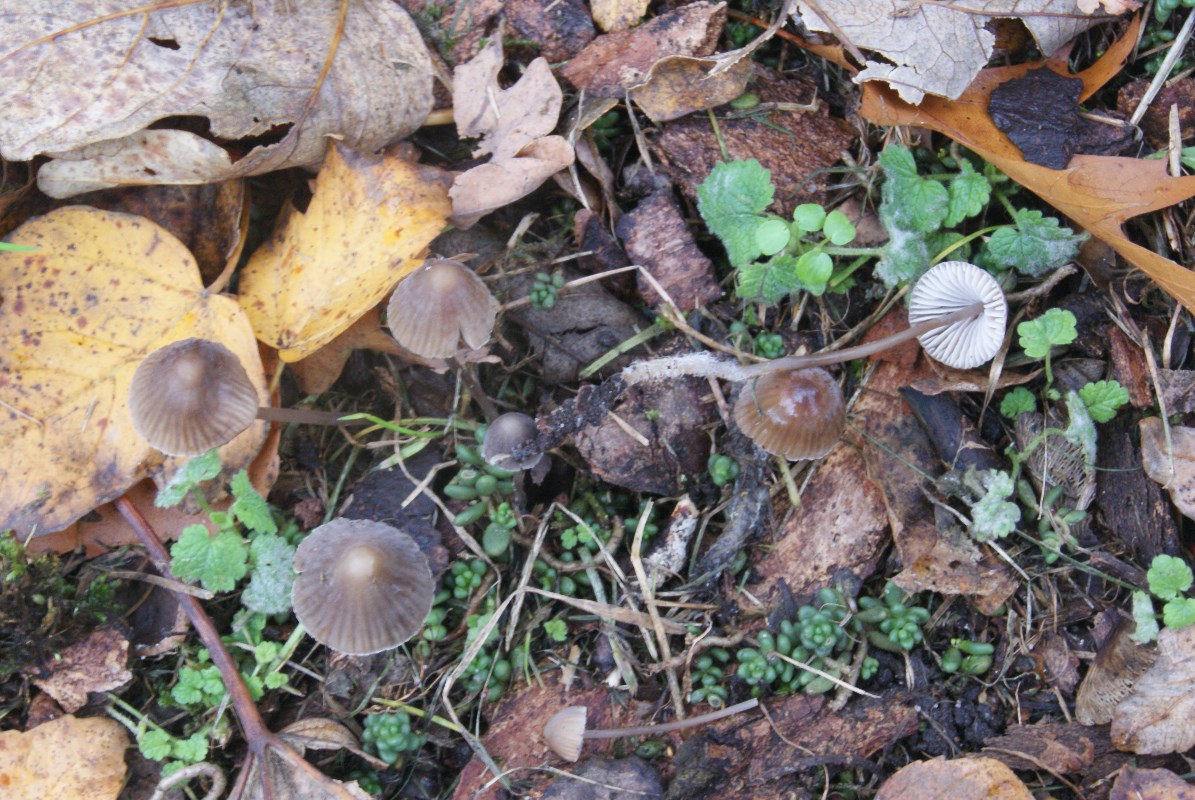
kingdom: Fungi
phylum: Basidiomycota
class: Agaricomycetes
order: Agaricales
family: Mycenaceae
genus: Mycena
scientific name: Mycena galopus
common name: hvidmælket huesvamp
